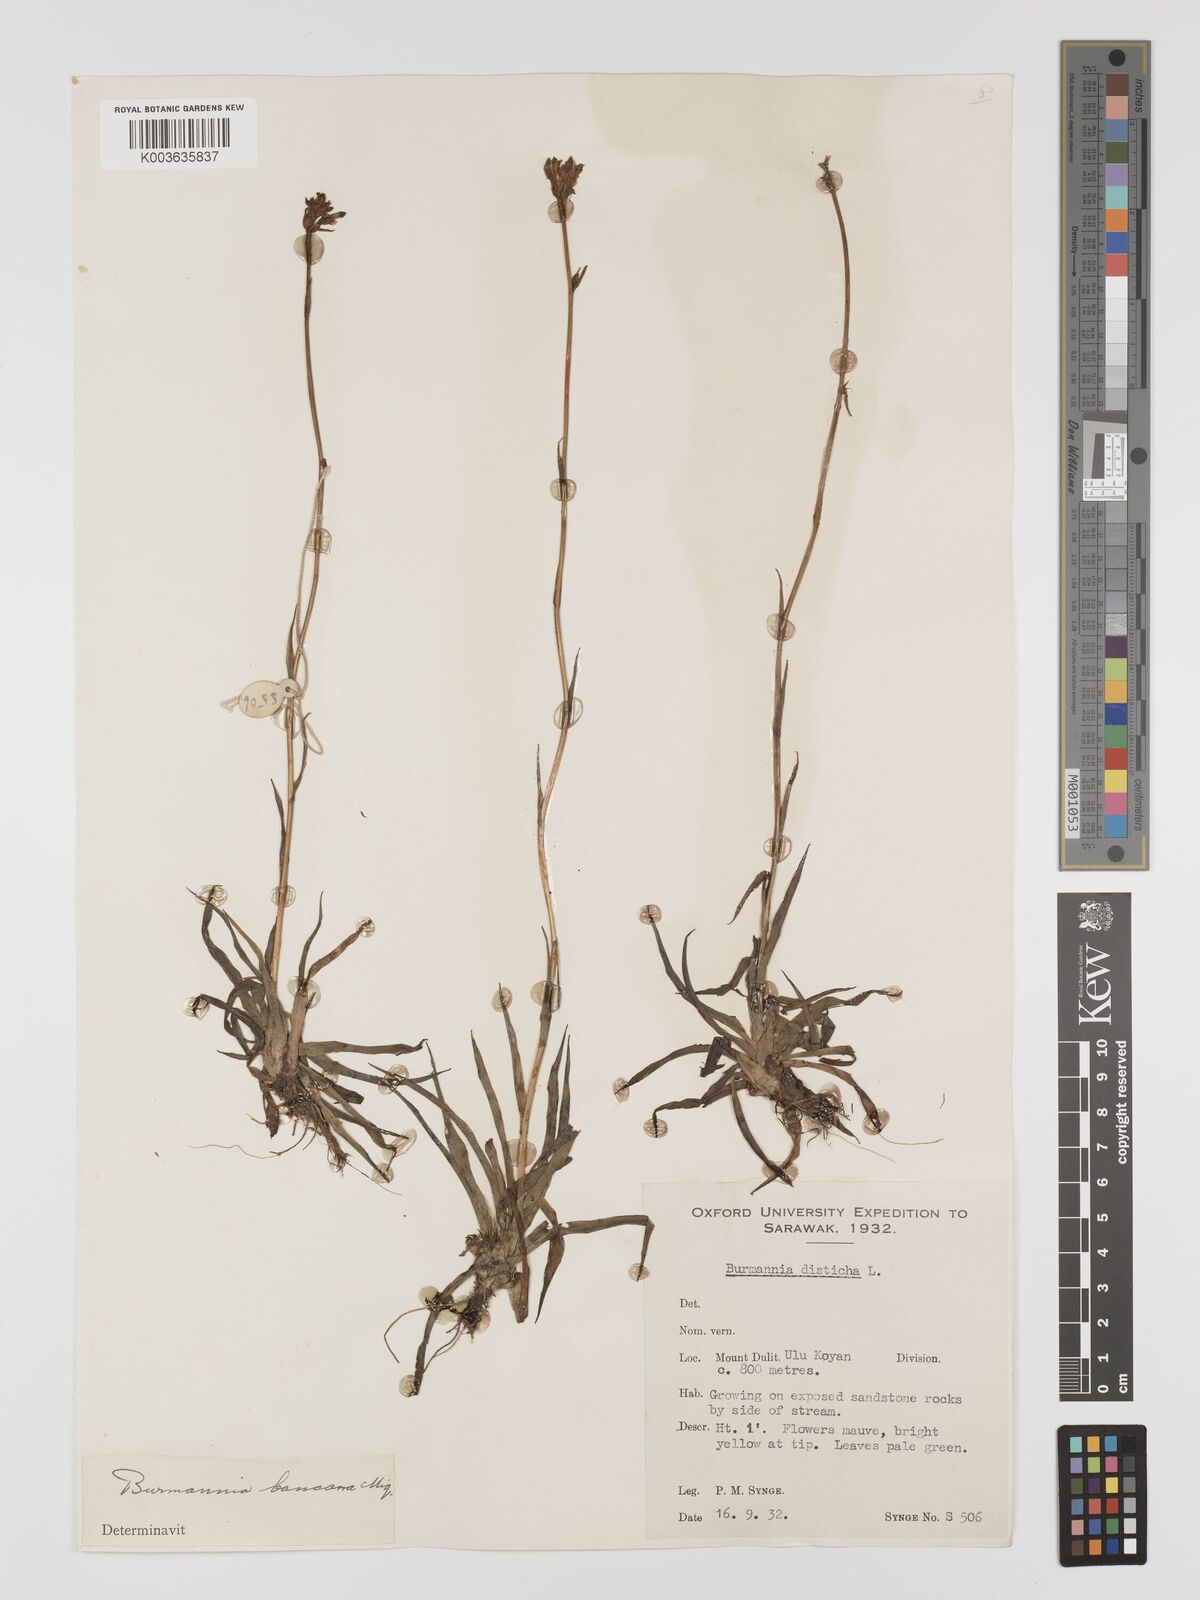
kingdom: Plantae
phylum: Tracheophyta
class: Liliopsida
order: Dioscoreales
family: Burmanniaceae
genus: Burmannia
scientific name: Burmannia disticha
